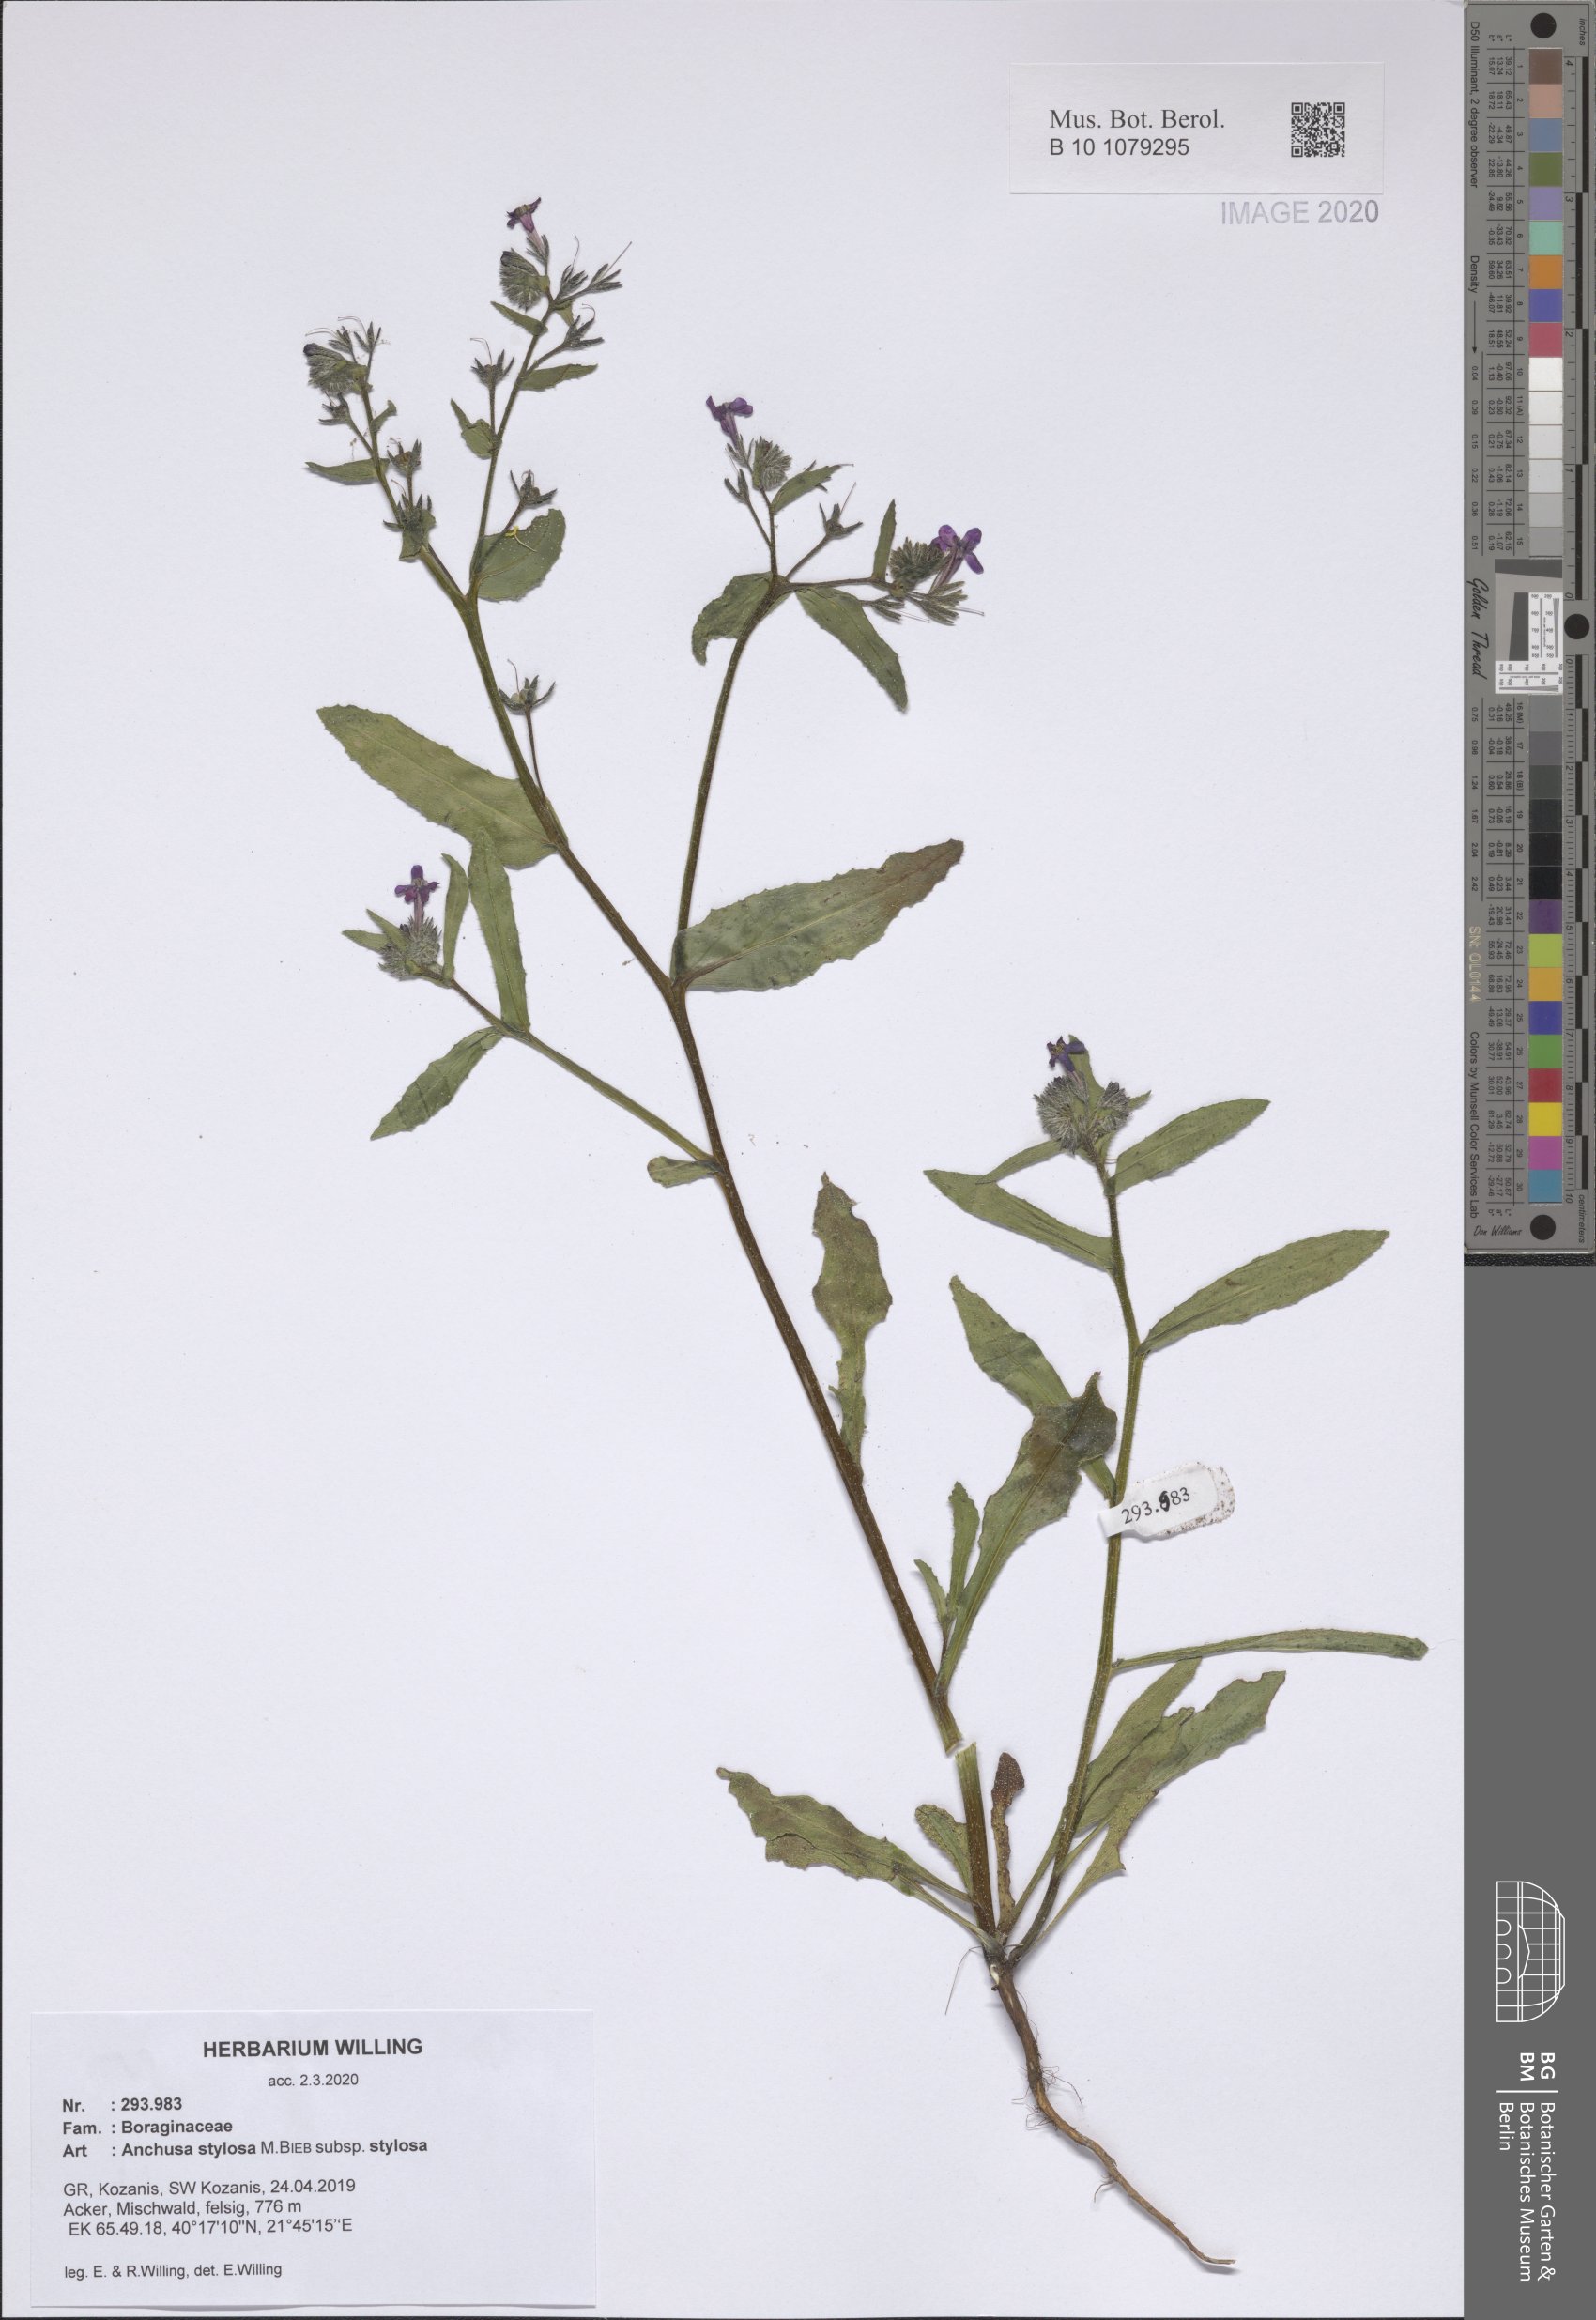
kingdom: Plantae
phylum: Tracheophyta
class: Magnoliopsida
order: Boraginales
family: Boraginaceae
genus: Anchusa
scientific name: Anchusa stylosa
